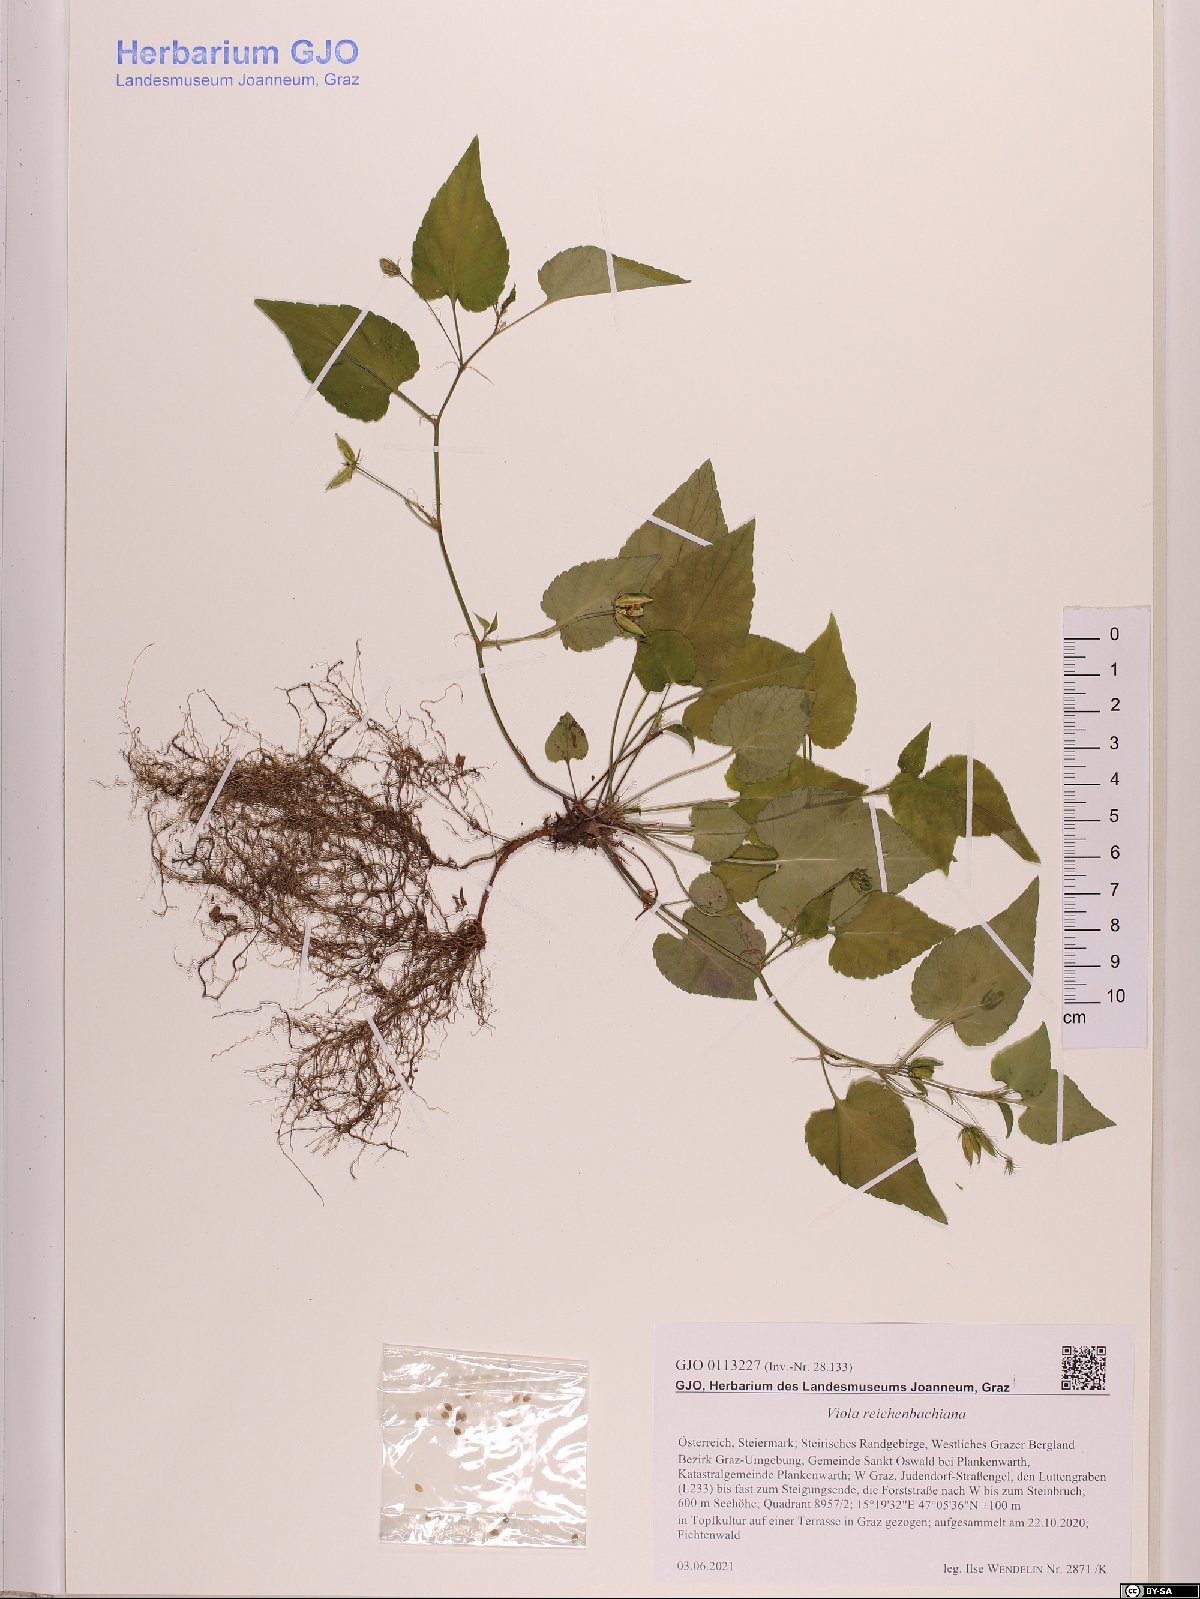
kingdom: Plantae
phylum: Tracheophyta
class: Magnoliopsida
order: Malpighiales
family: Violaceae
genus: Viola
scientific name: Viola reichenbachiana
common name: Early dog-violet
